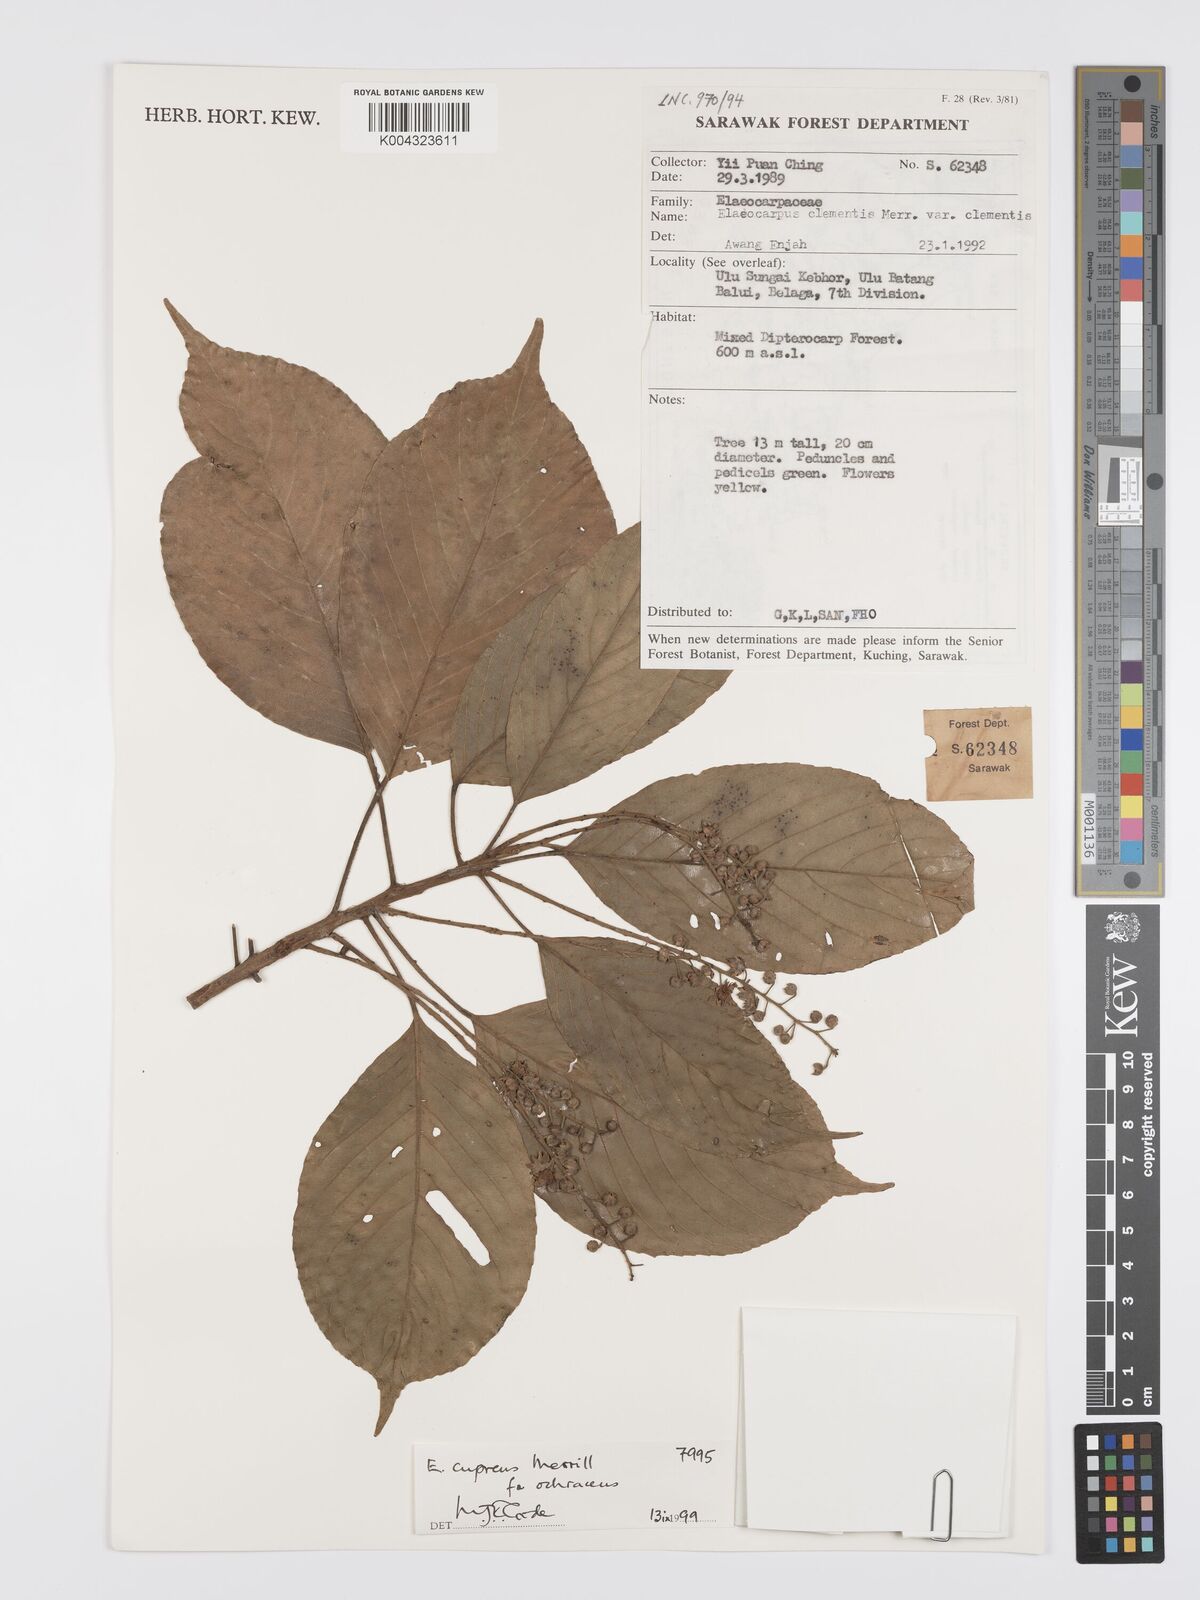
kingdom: Plantae
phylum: Tracheophyta
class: Magnoliopsida
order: Oxalidales
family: Elaeocarpaceae
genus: Elaeocarpus
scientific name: Elaeocarpus cupreus
